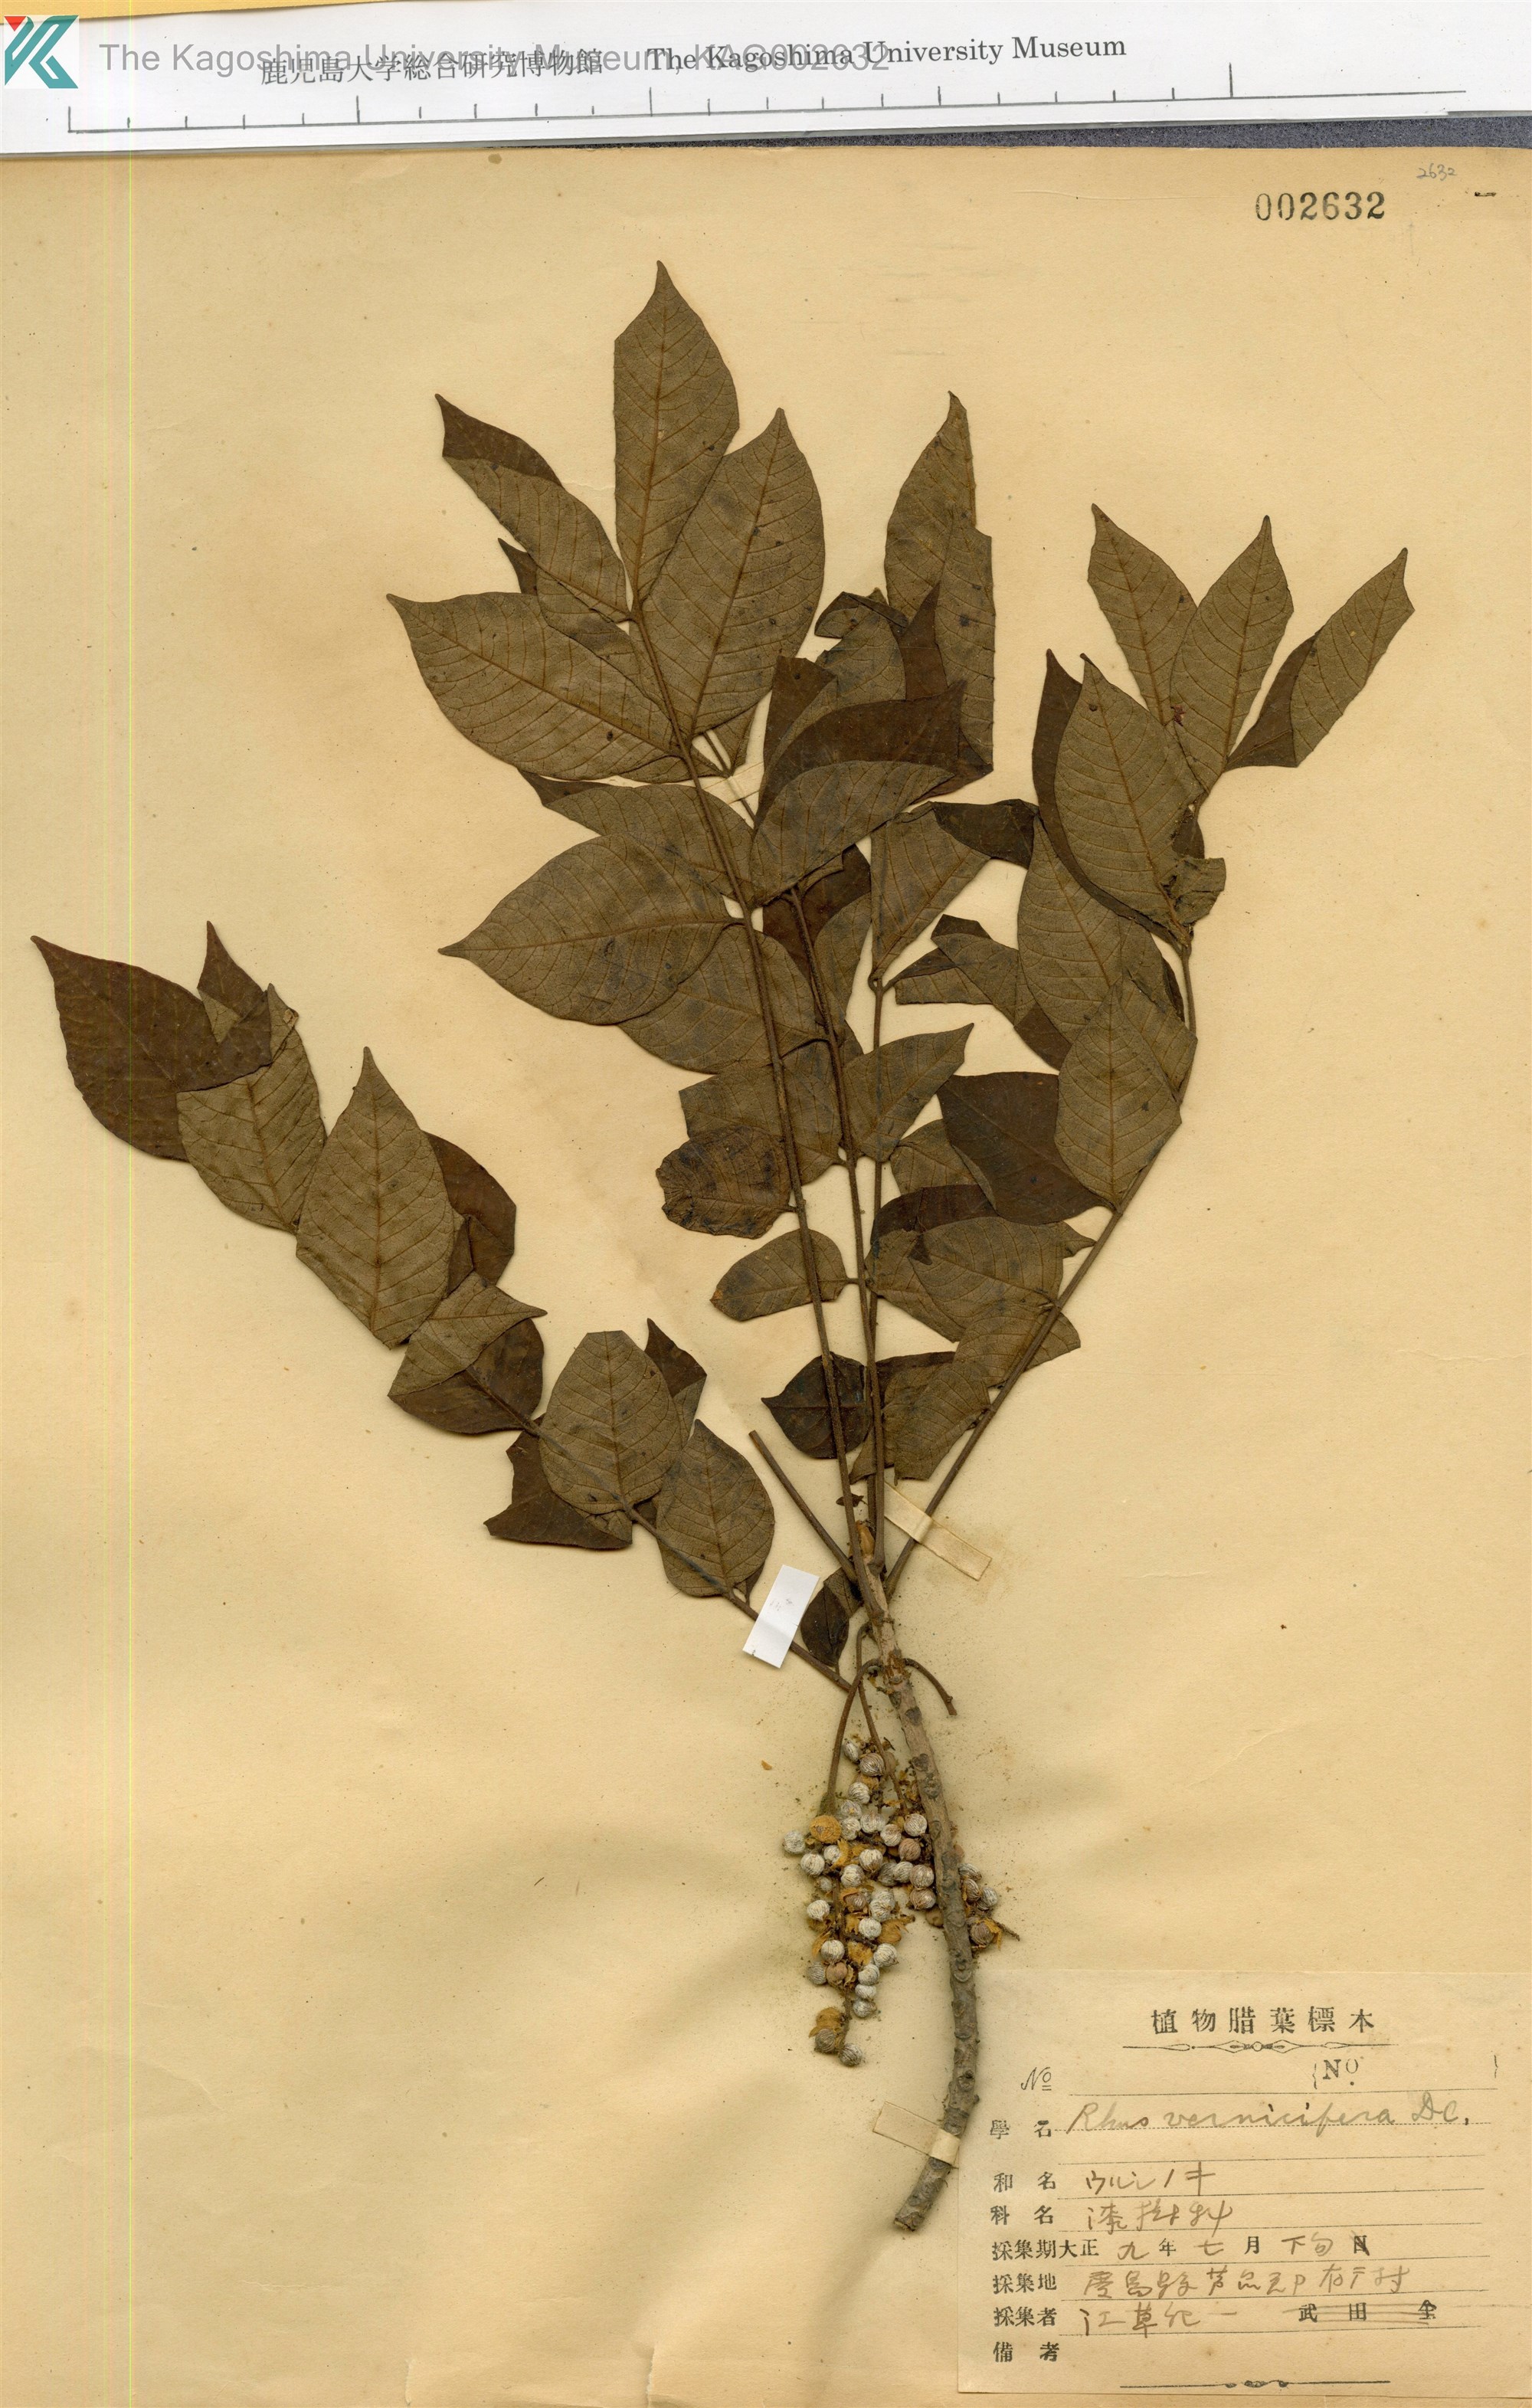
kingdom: Plantae
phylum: Tracheophyta
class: Magnoliopsida
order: Sapindales
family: Anacardiaceae
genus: Toxicodendron
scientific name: Toxicodendron vernicifluum
